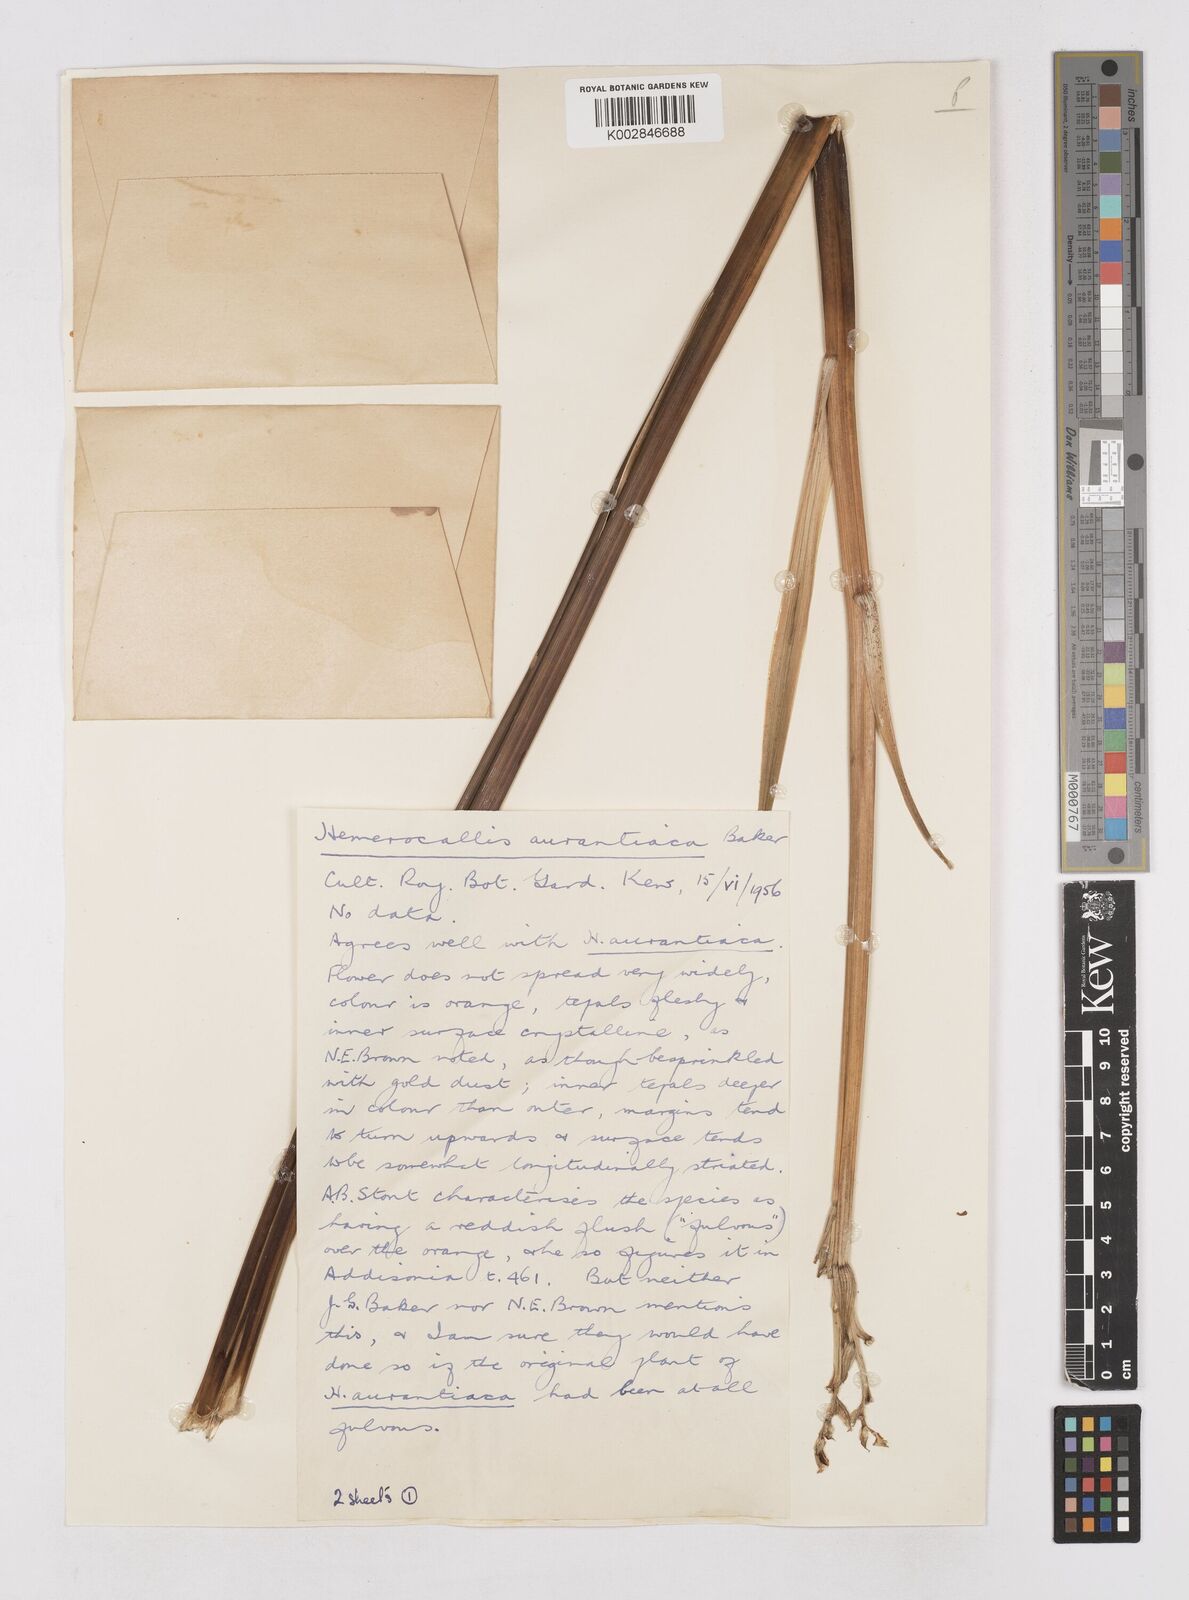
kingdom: Plantae
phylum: Tracheophyta
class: Liliopsida
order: Asparagales
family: Asphodelaceae
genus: Hemerocallis
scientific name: Hemerocallis fulva
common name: Orange day-lily
